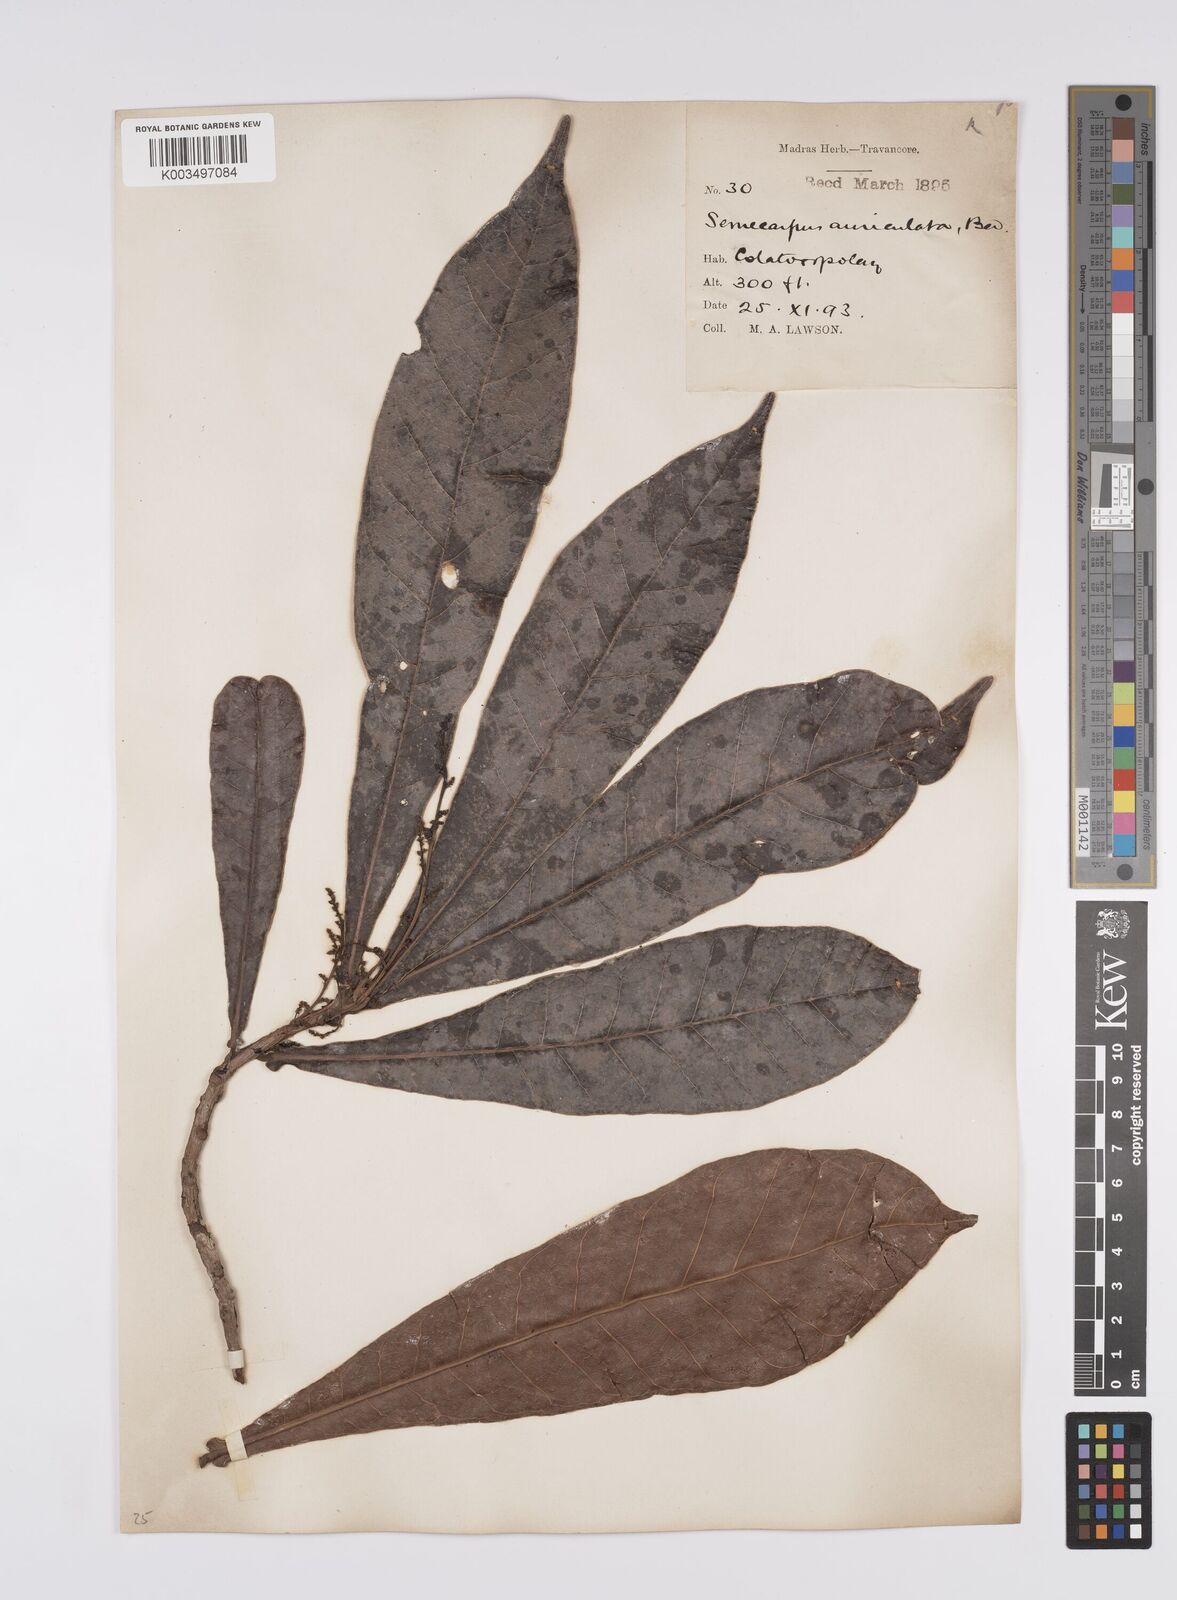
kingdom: Plantae
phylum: Tracheophyta
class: Magnoliopsida
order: Sapindales
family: Anacardiaceae
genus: Semecarpus
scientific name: Semecarpus auriculatus
